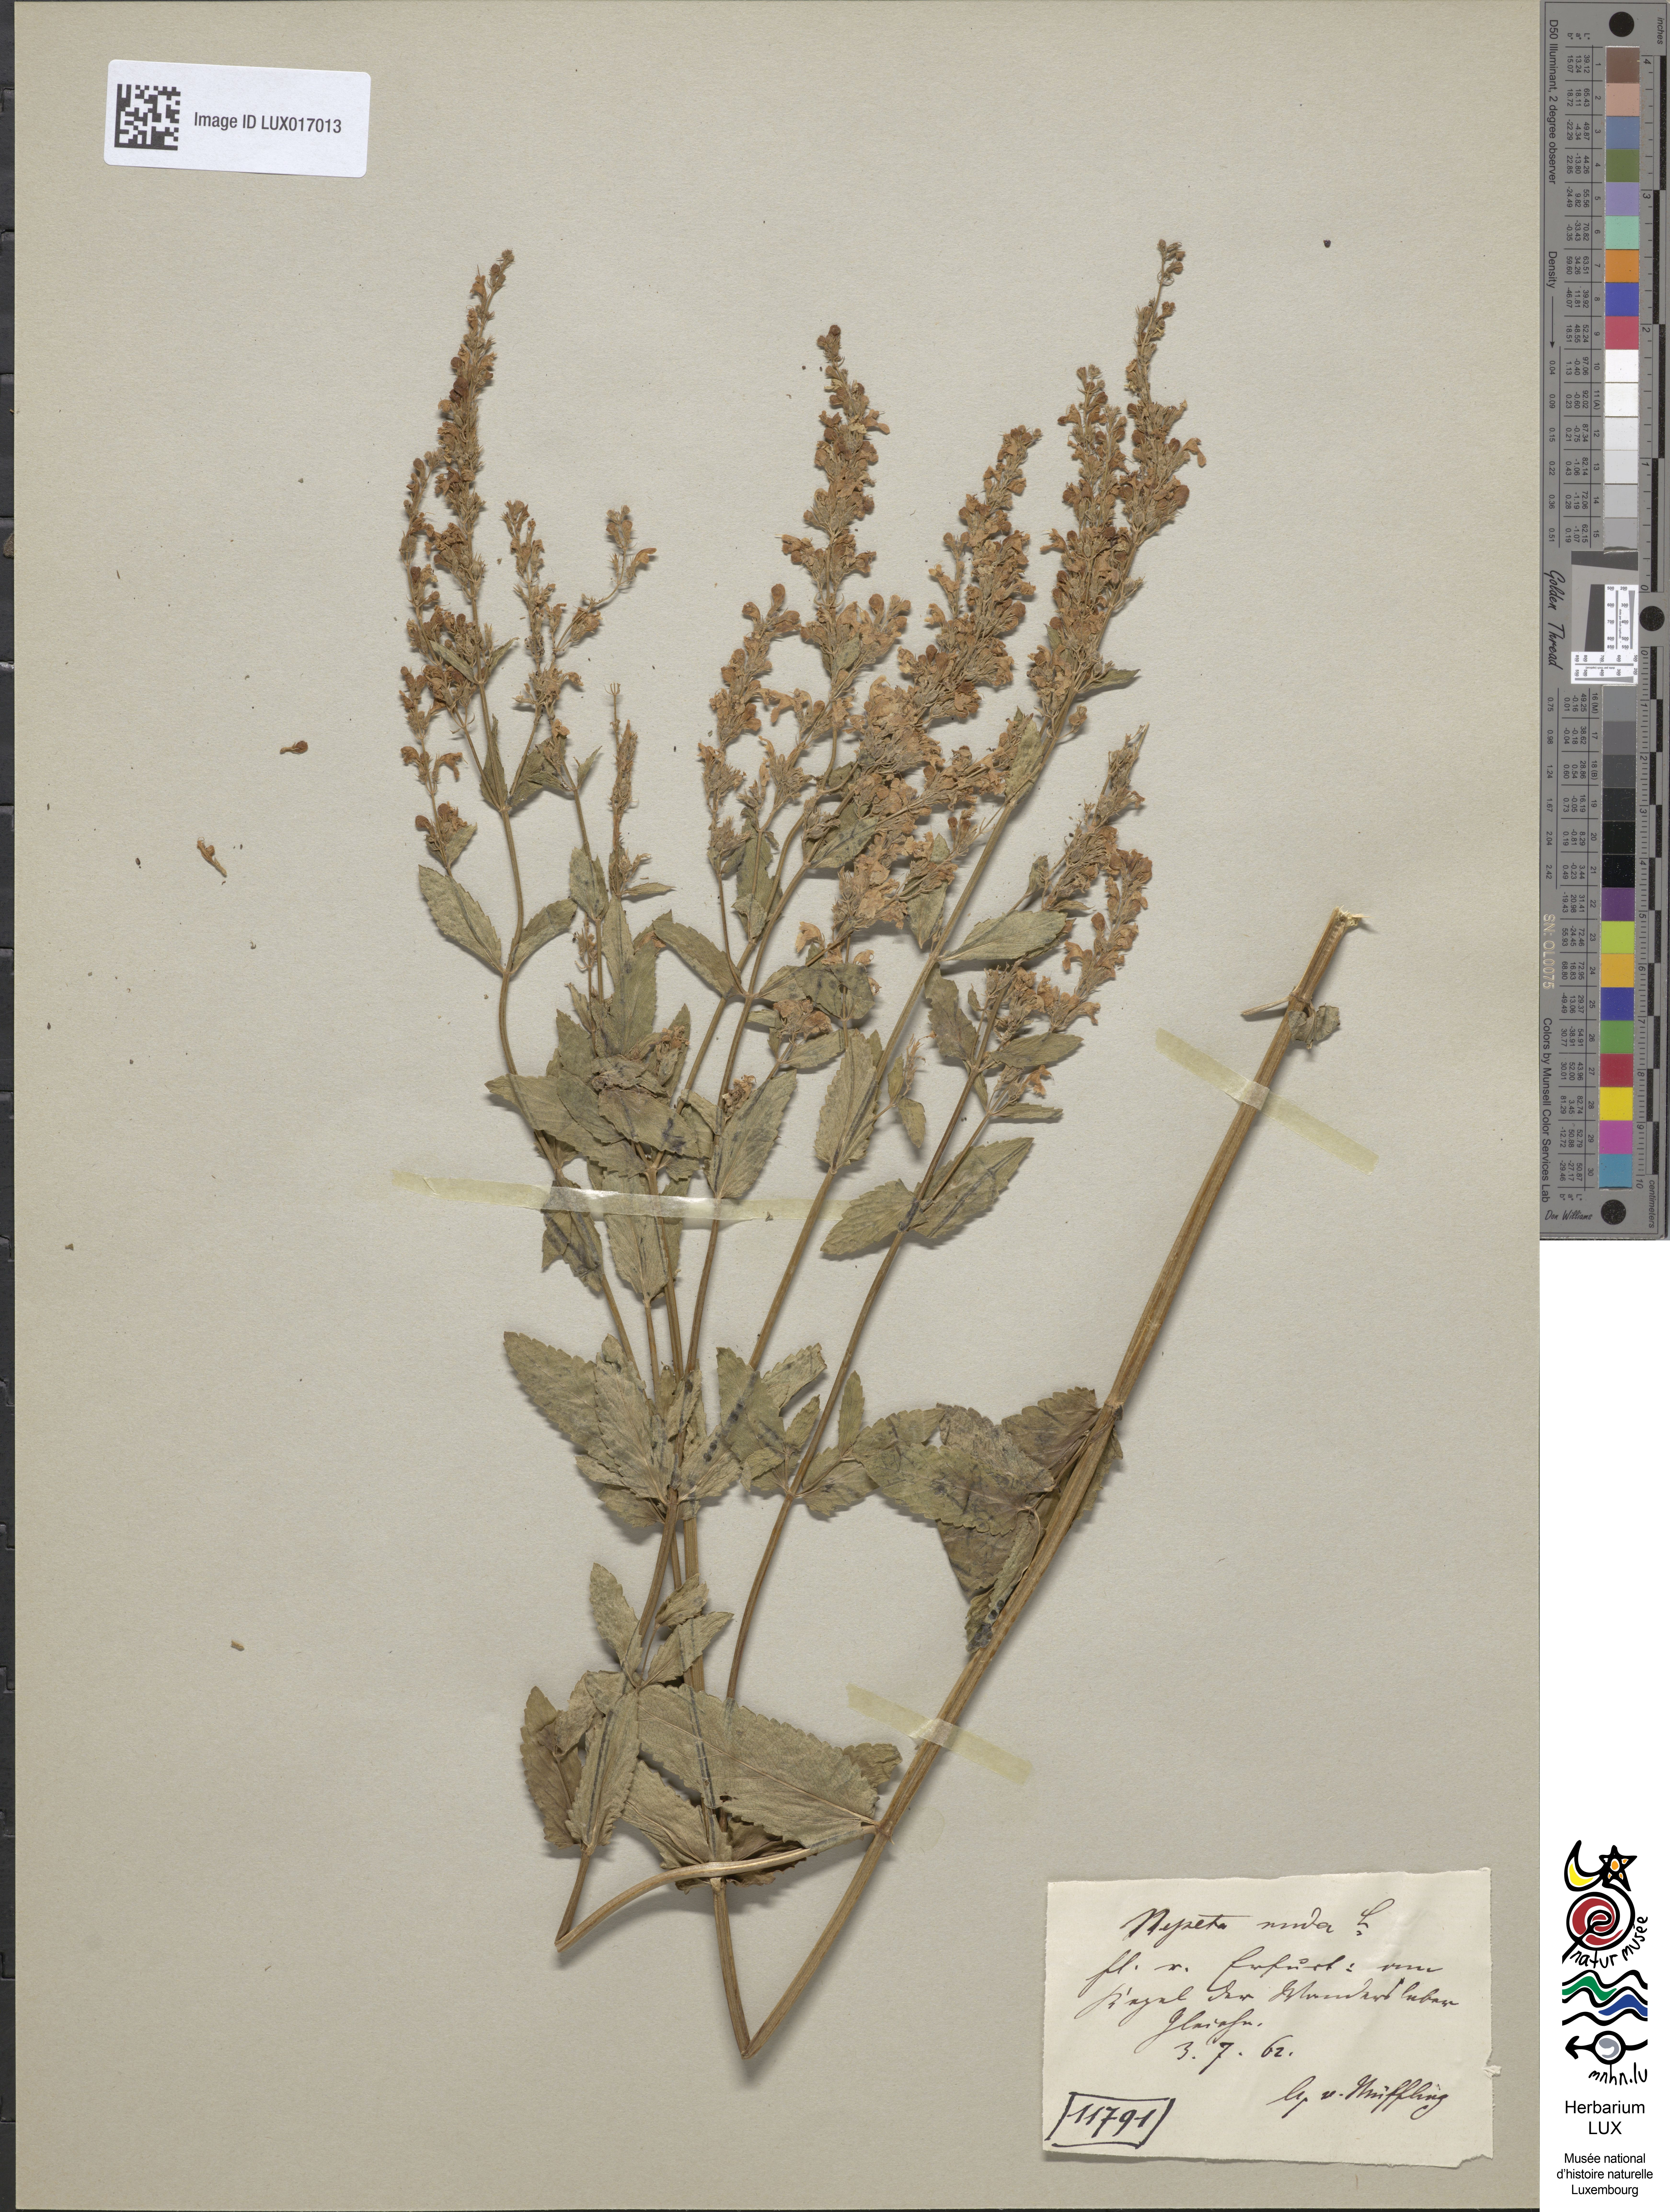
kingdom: Plantae
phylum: Tracheophyta
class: Magnoliopsida
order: Lamiales
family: Lamiaceae
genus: Nepeta
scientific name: Nepeta nuda
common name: Hairless catmint
